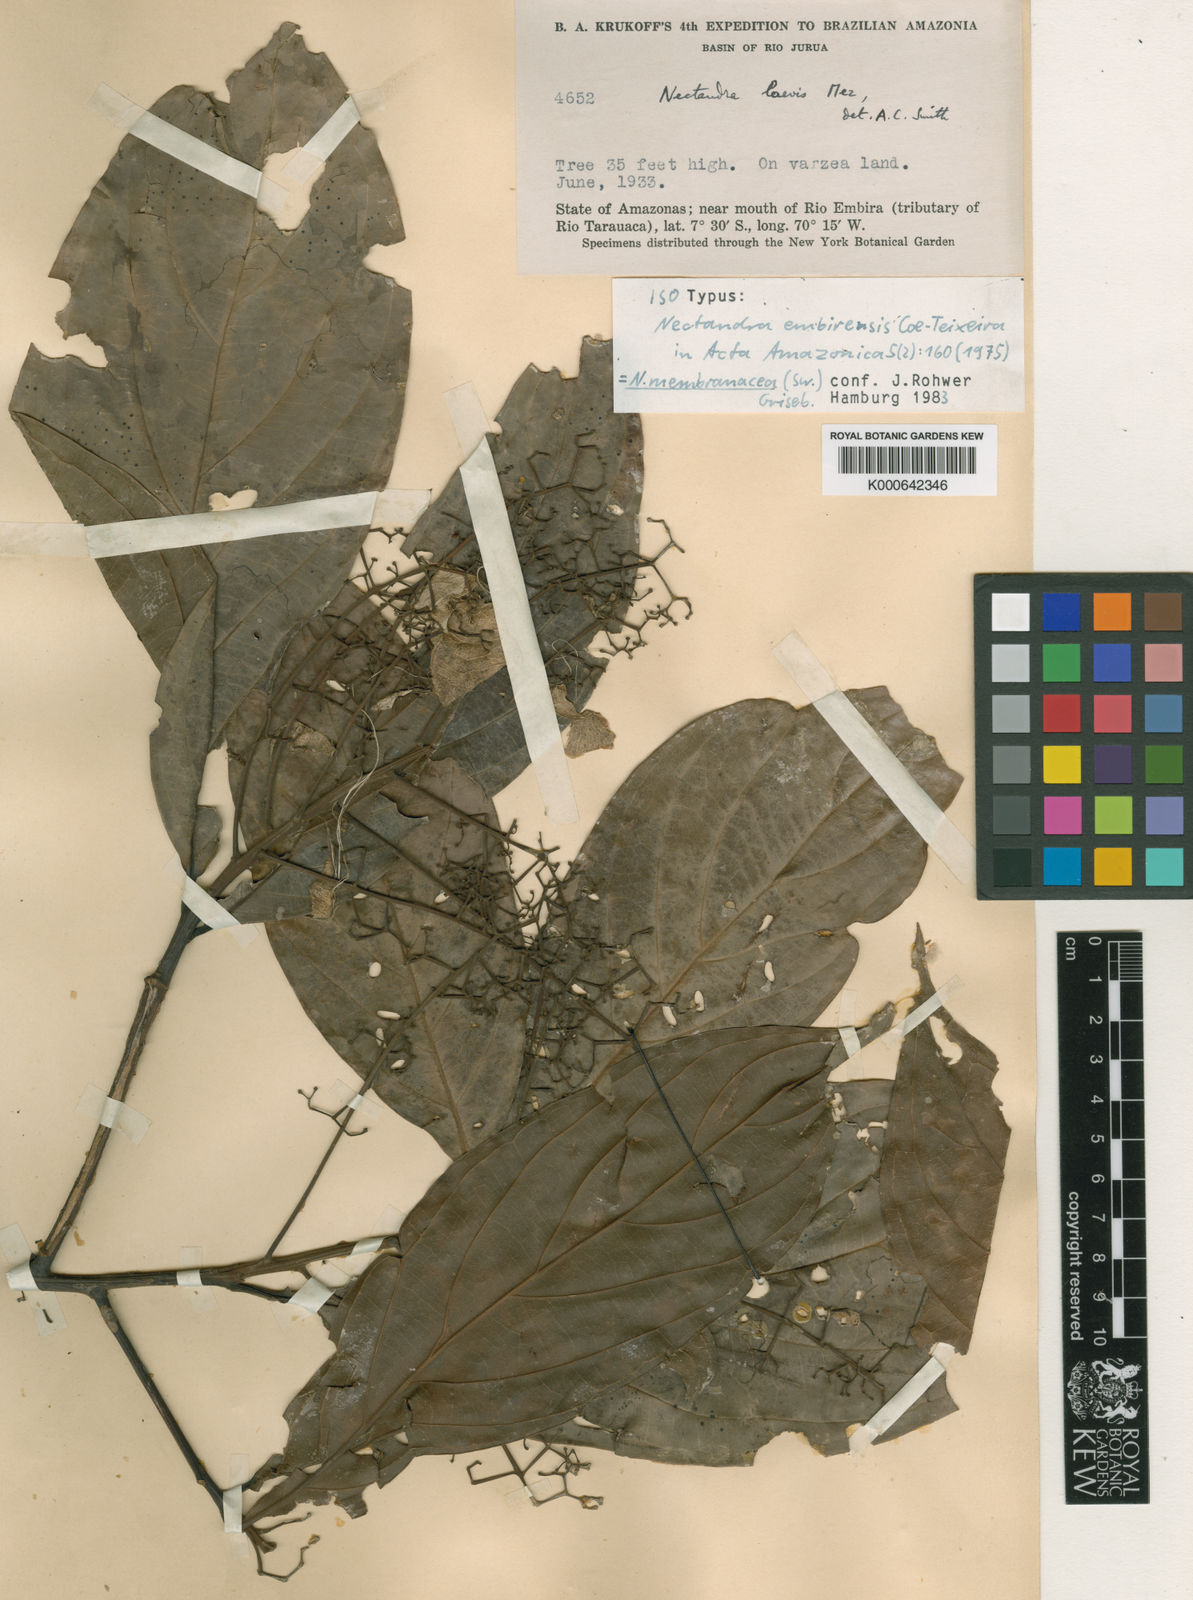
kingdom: Plantae
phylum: Tracheophyta
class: Magnoliopsida
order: Laurales
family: Lauraceae
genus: Nectandra
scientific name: Nectandra membranacea
